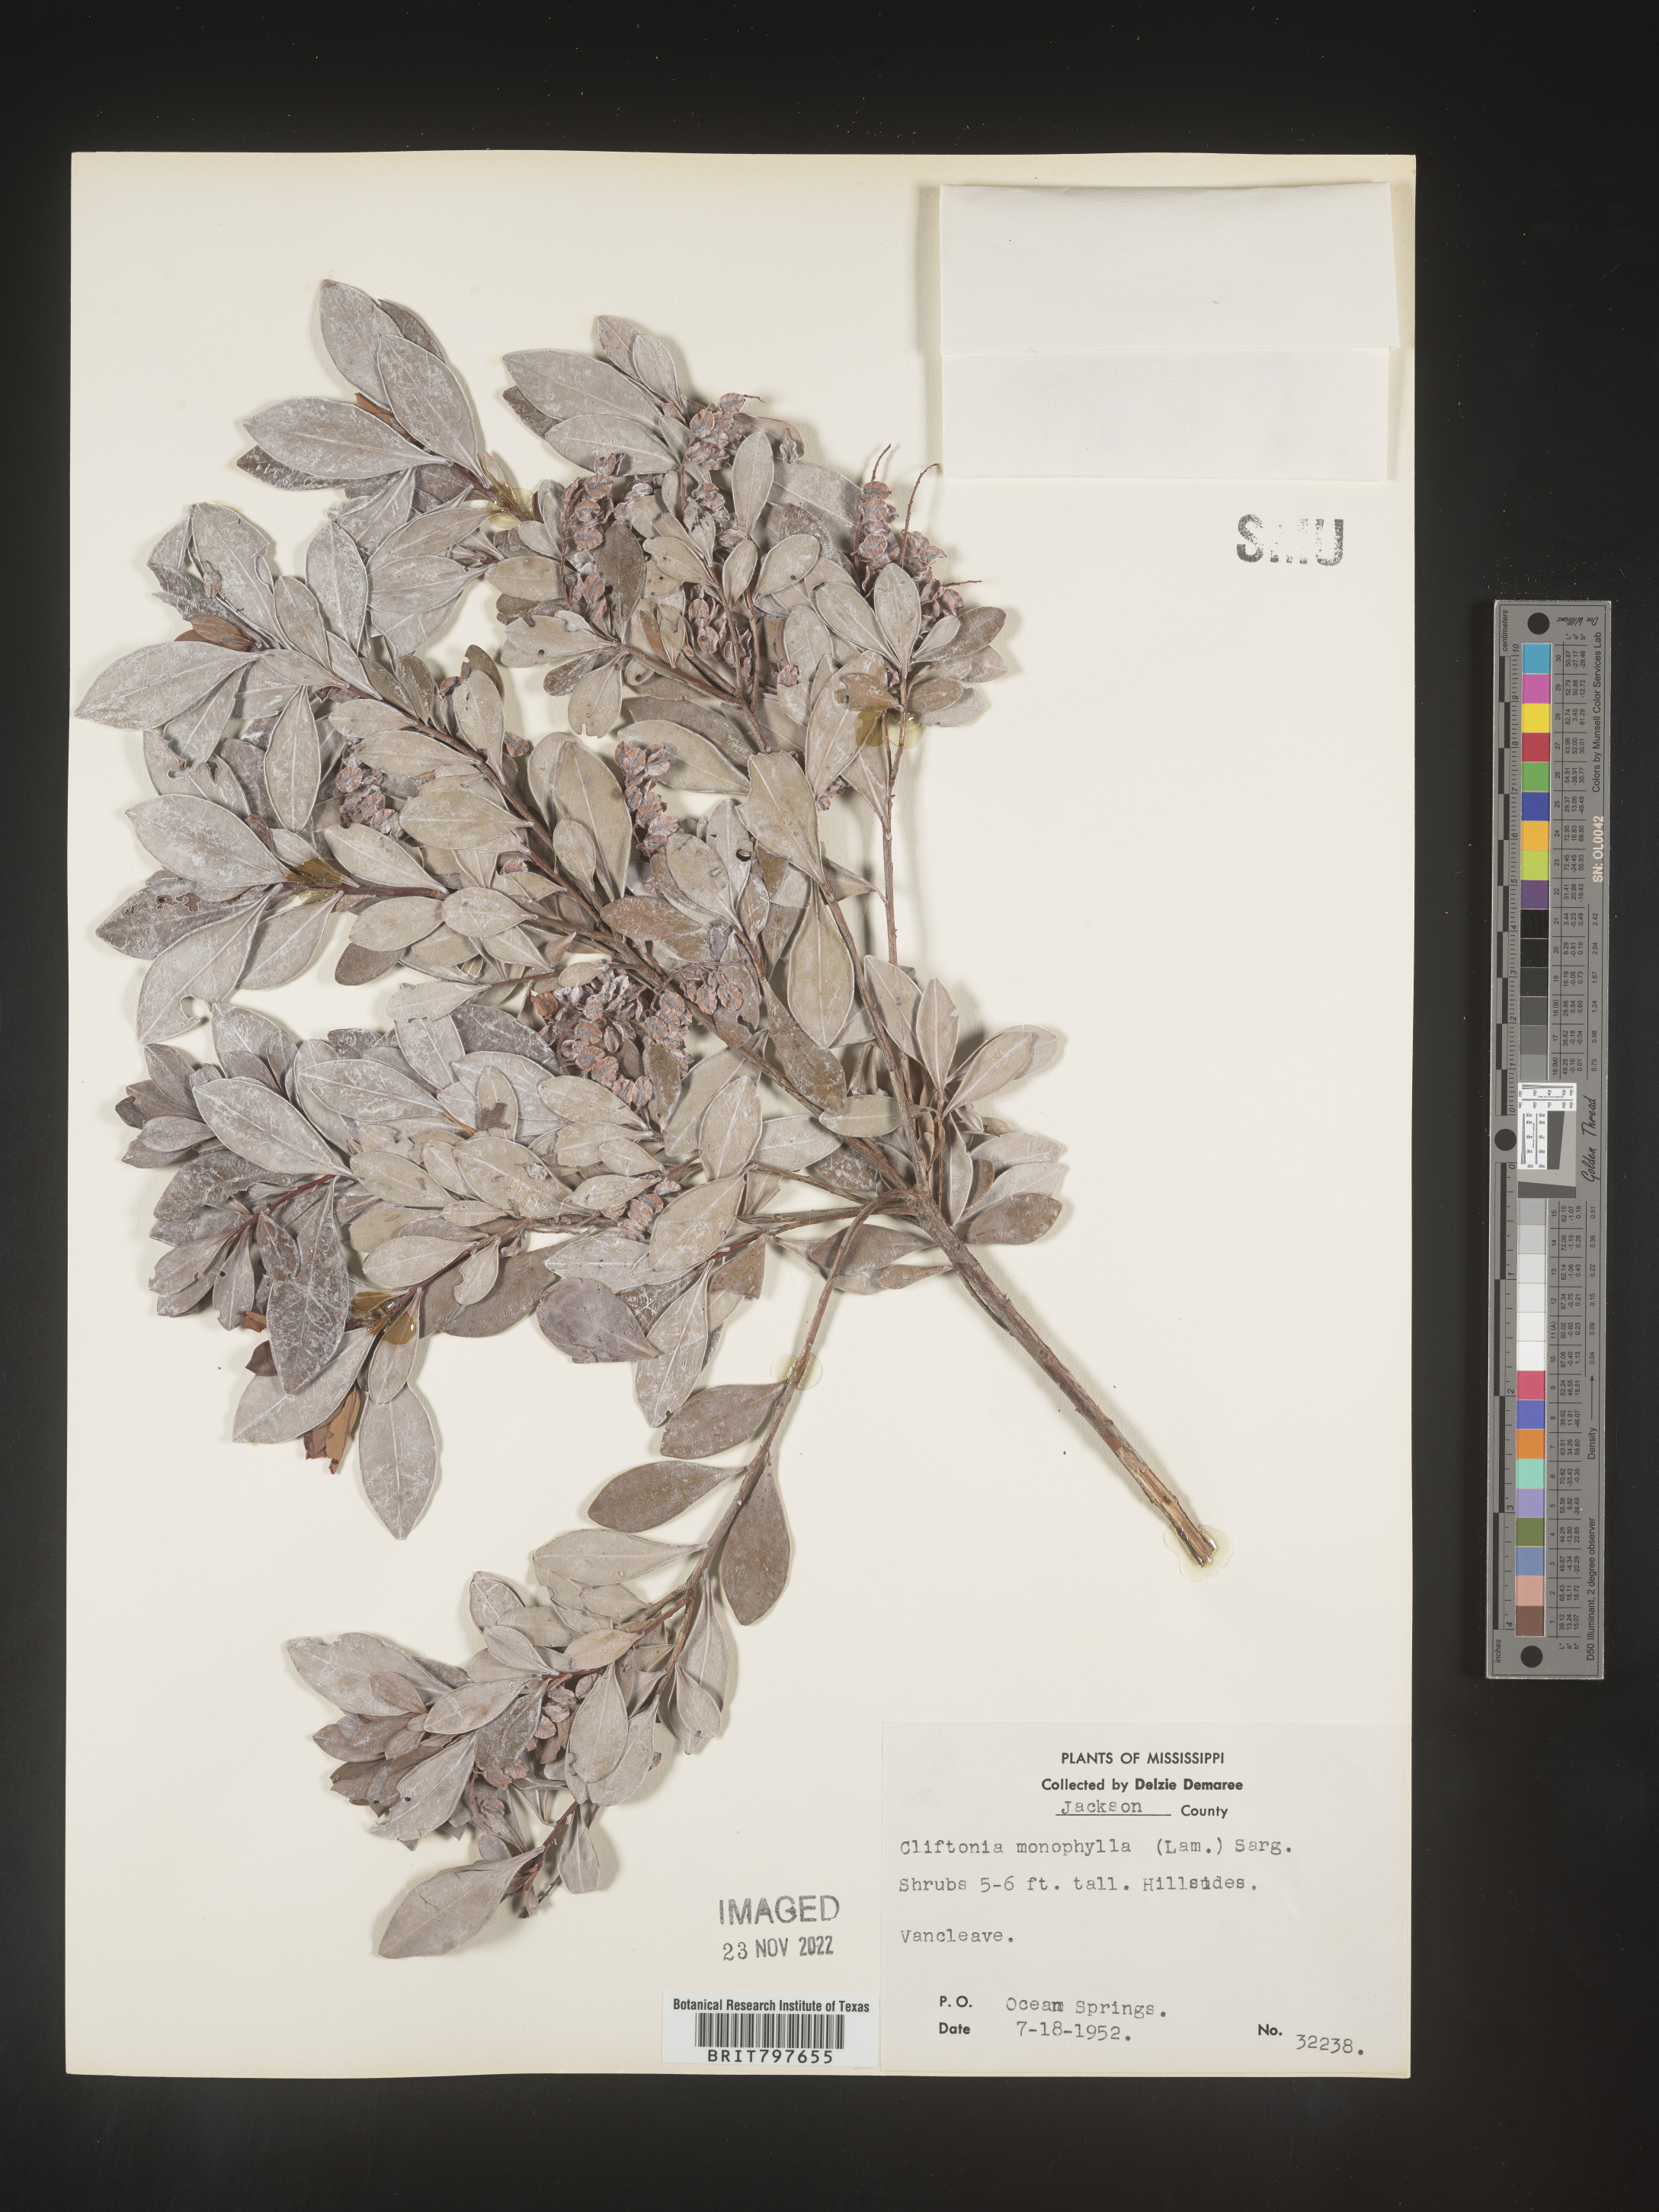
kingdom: Plantae
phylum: Tracheophyta
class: Magnoliopsida
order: Ericales
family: Cyrillaceae
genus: Cliftonia
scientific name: Cliftonia monophylla
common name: Titi
